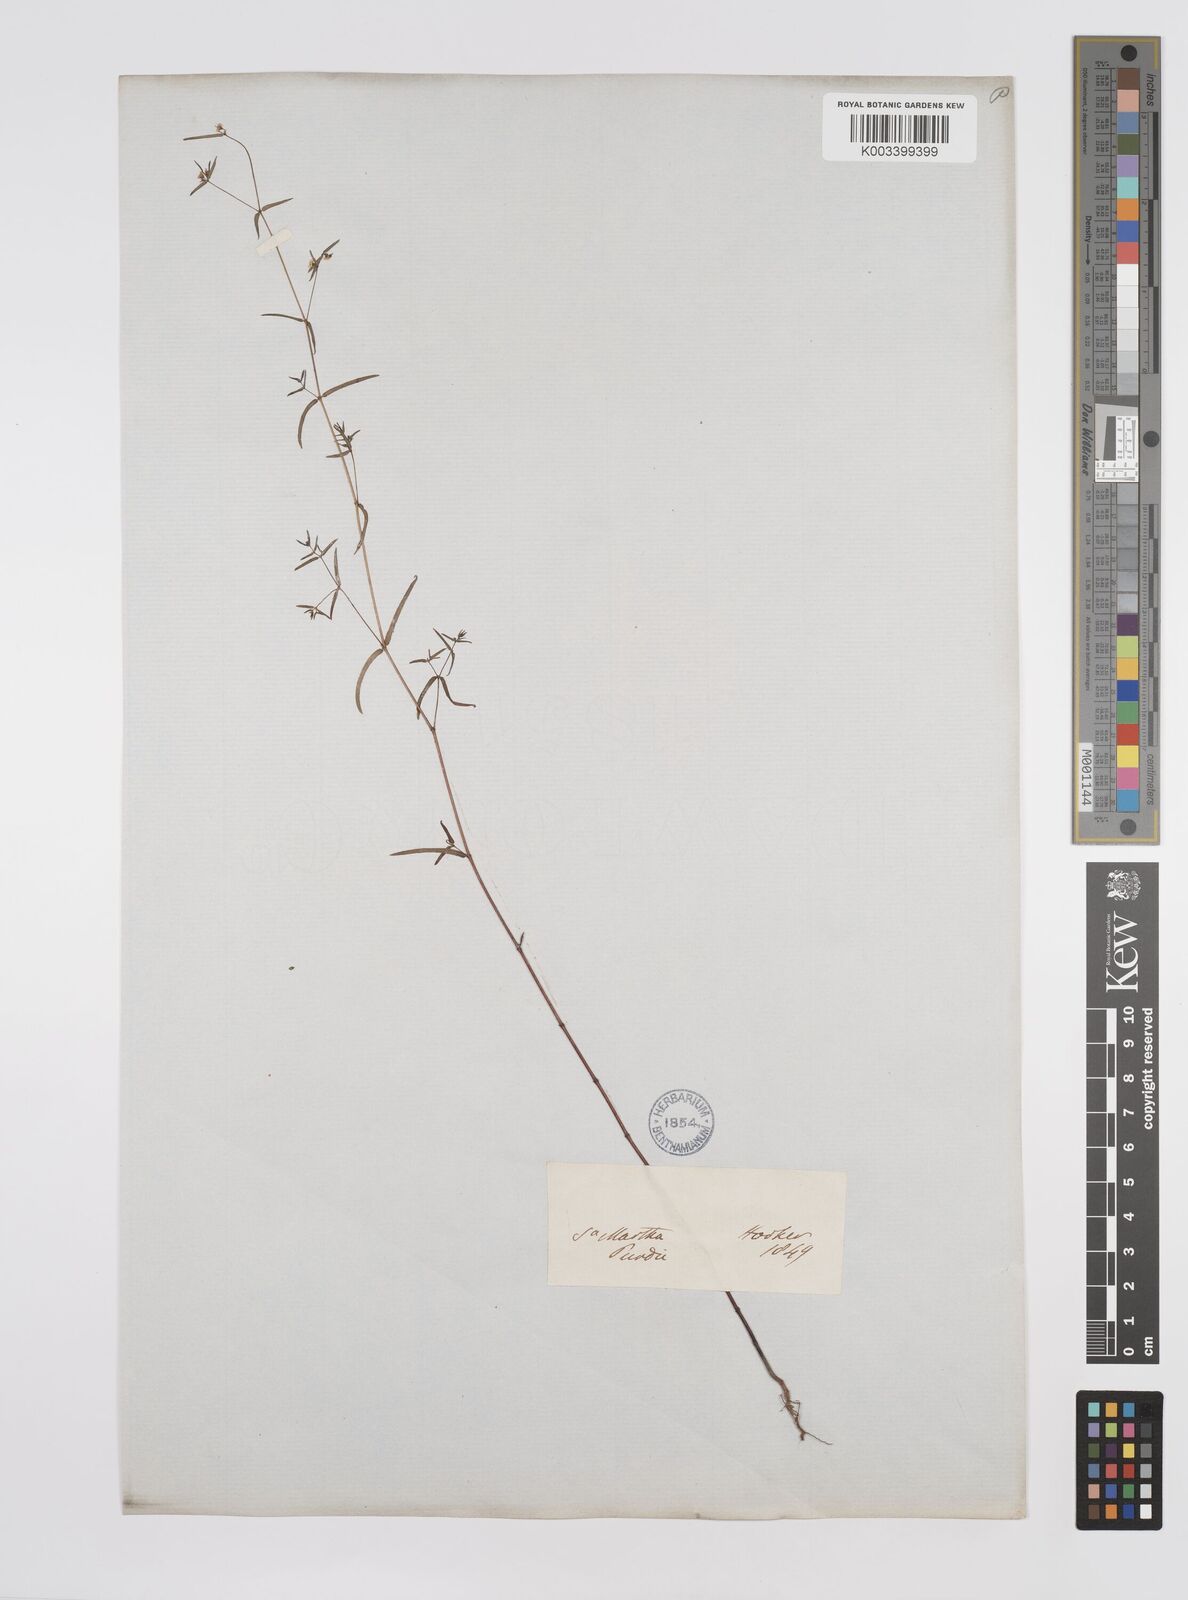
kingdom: Plantae
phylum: Tracheophyta
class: Magnoliopsida
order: Malpighiales
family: Euphorbiaceae
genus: Euphorbia
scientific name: Euphorbia
